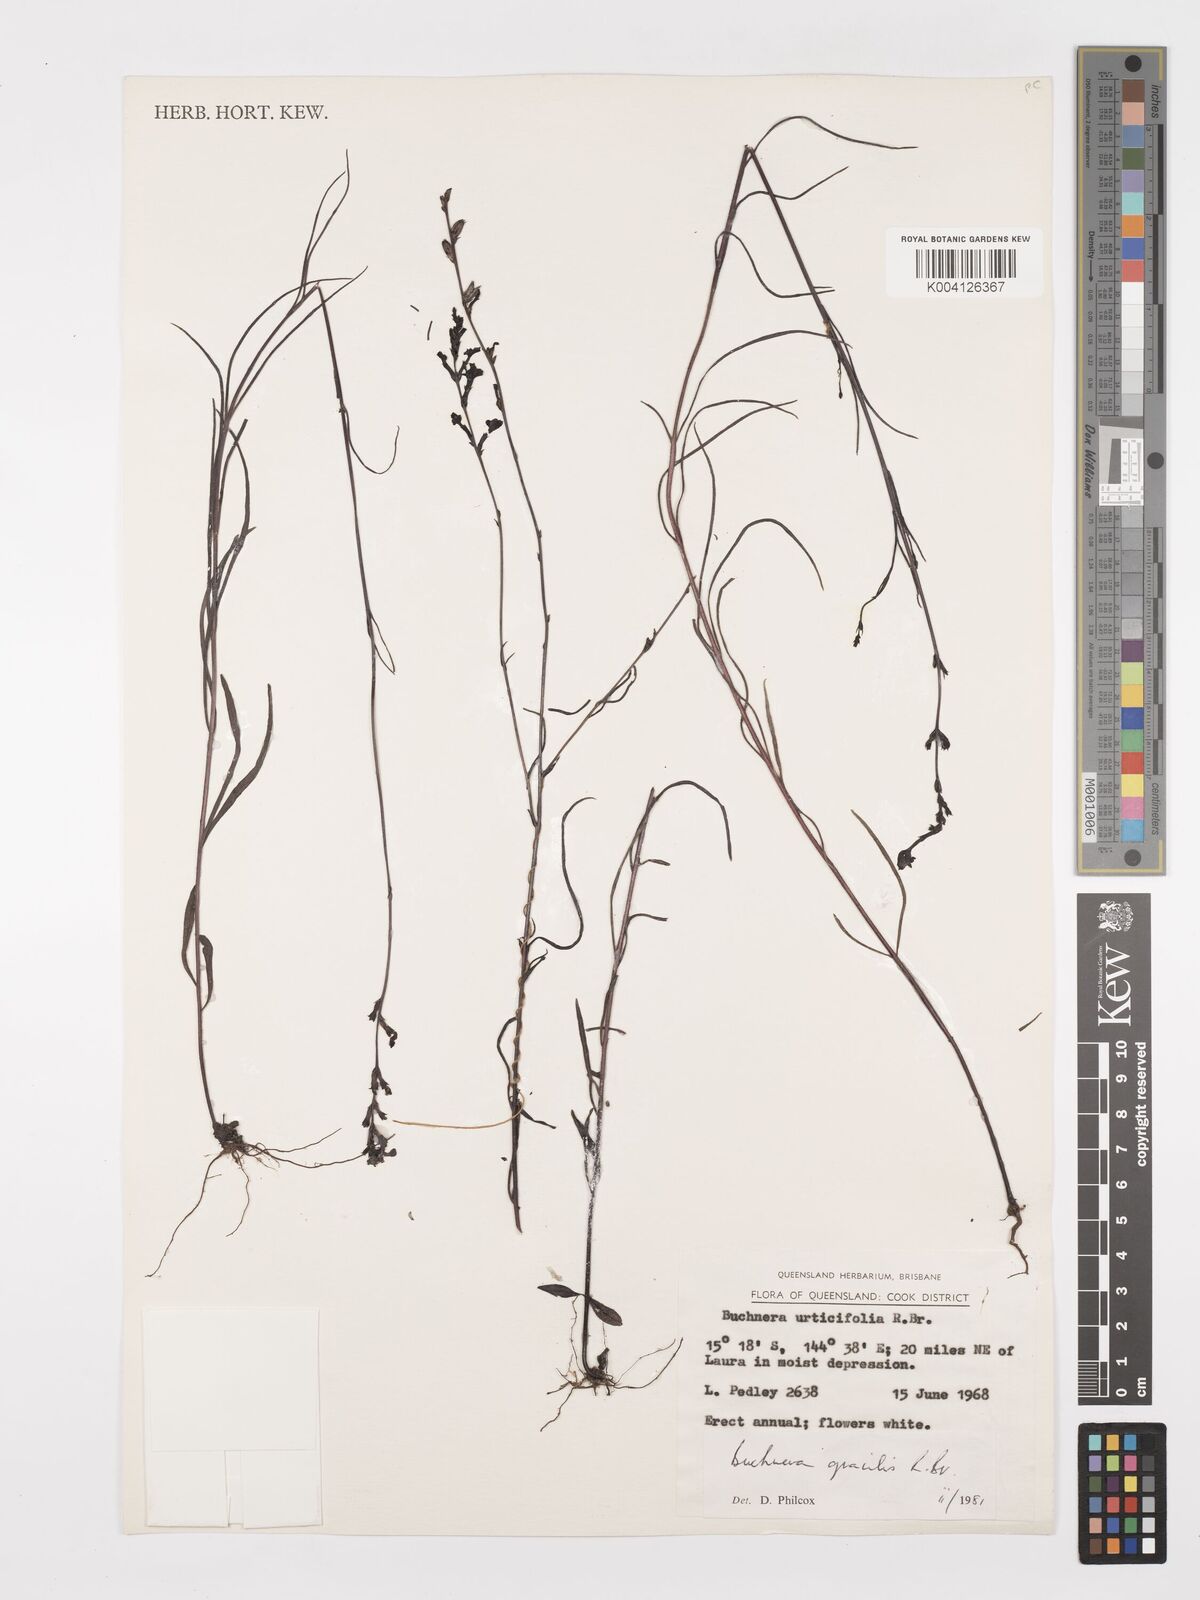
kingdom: Plantae
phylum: Tracheophyta
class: Magnoliopsida
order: Lamiales
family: Orobanchaceae
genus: Buchnera
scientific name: Buchnera gracilis
